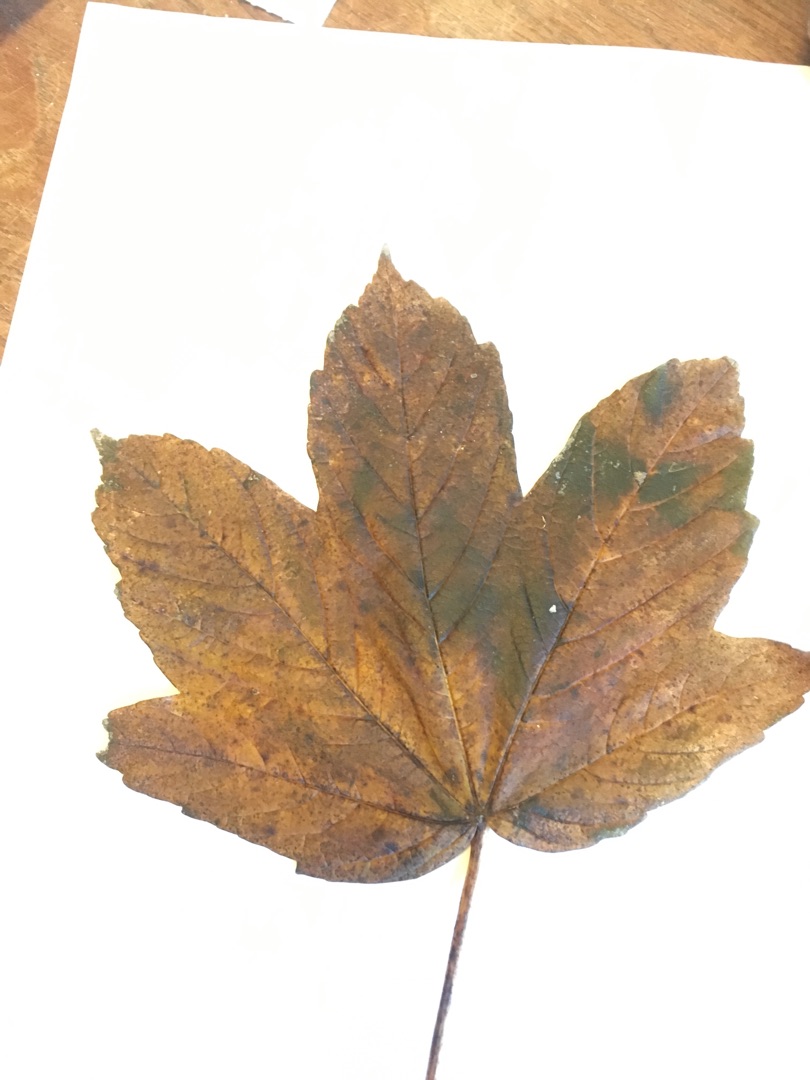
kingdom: Plantae
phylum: Tracheophyta
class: Magnoliopsida
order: Sapindales
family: Sapindaceae
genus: Acer
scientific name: Acer pseudoplatanus
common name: Ahorn
